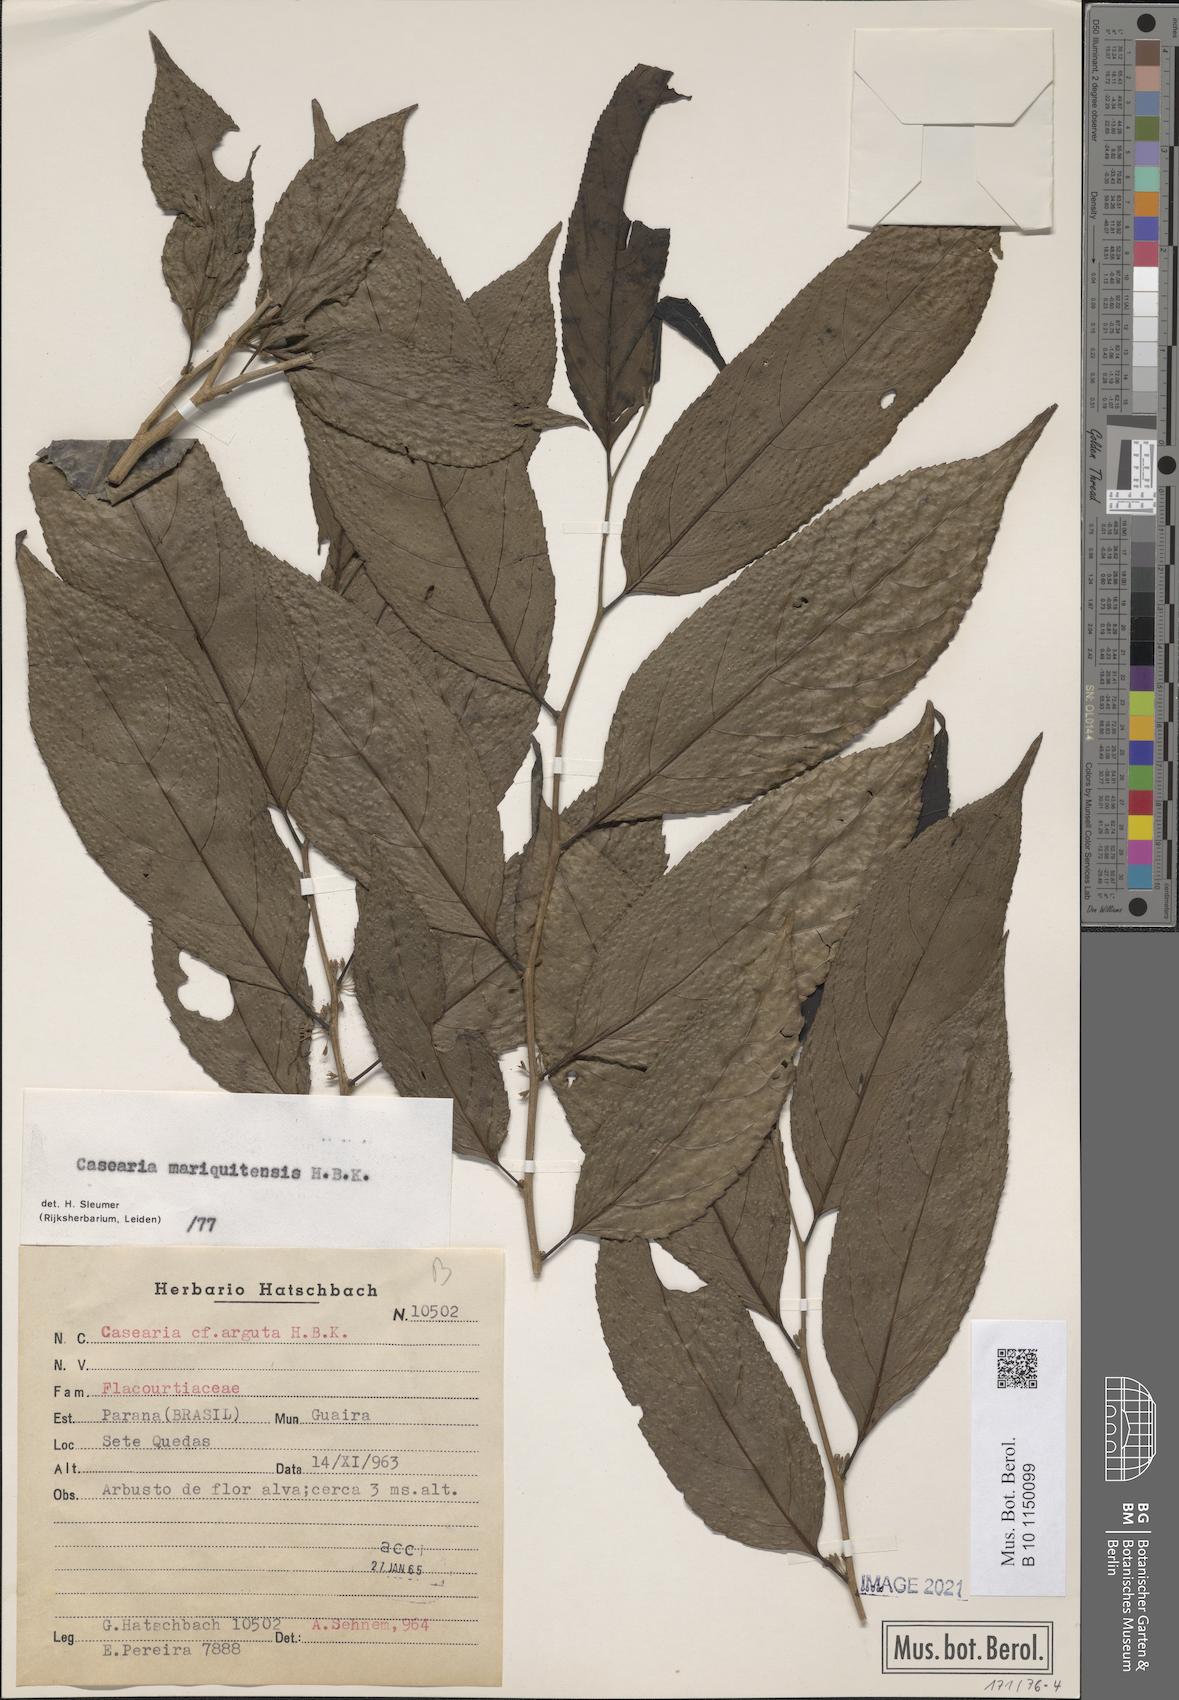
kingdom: Plantae
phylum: Tracheophyta
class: Magnoliopsida
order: Malpighiales
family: Salicaceae
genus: Casearia
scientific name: Casearia mariquitensis
